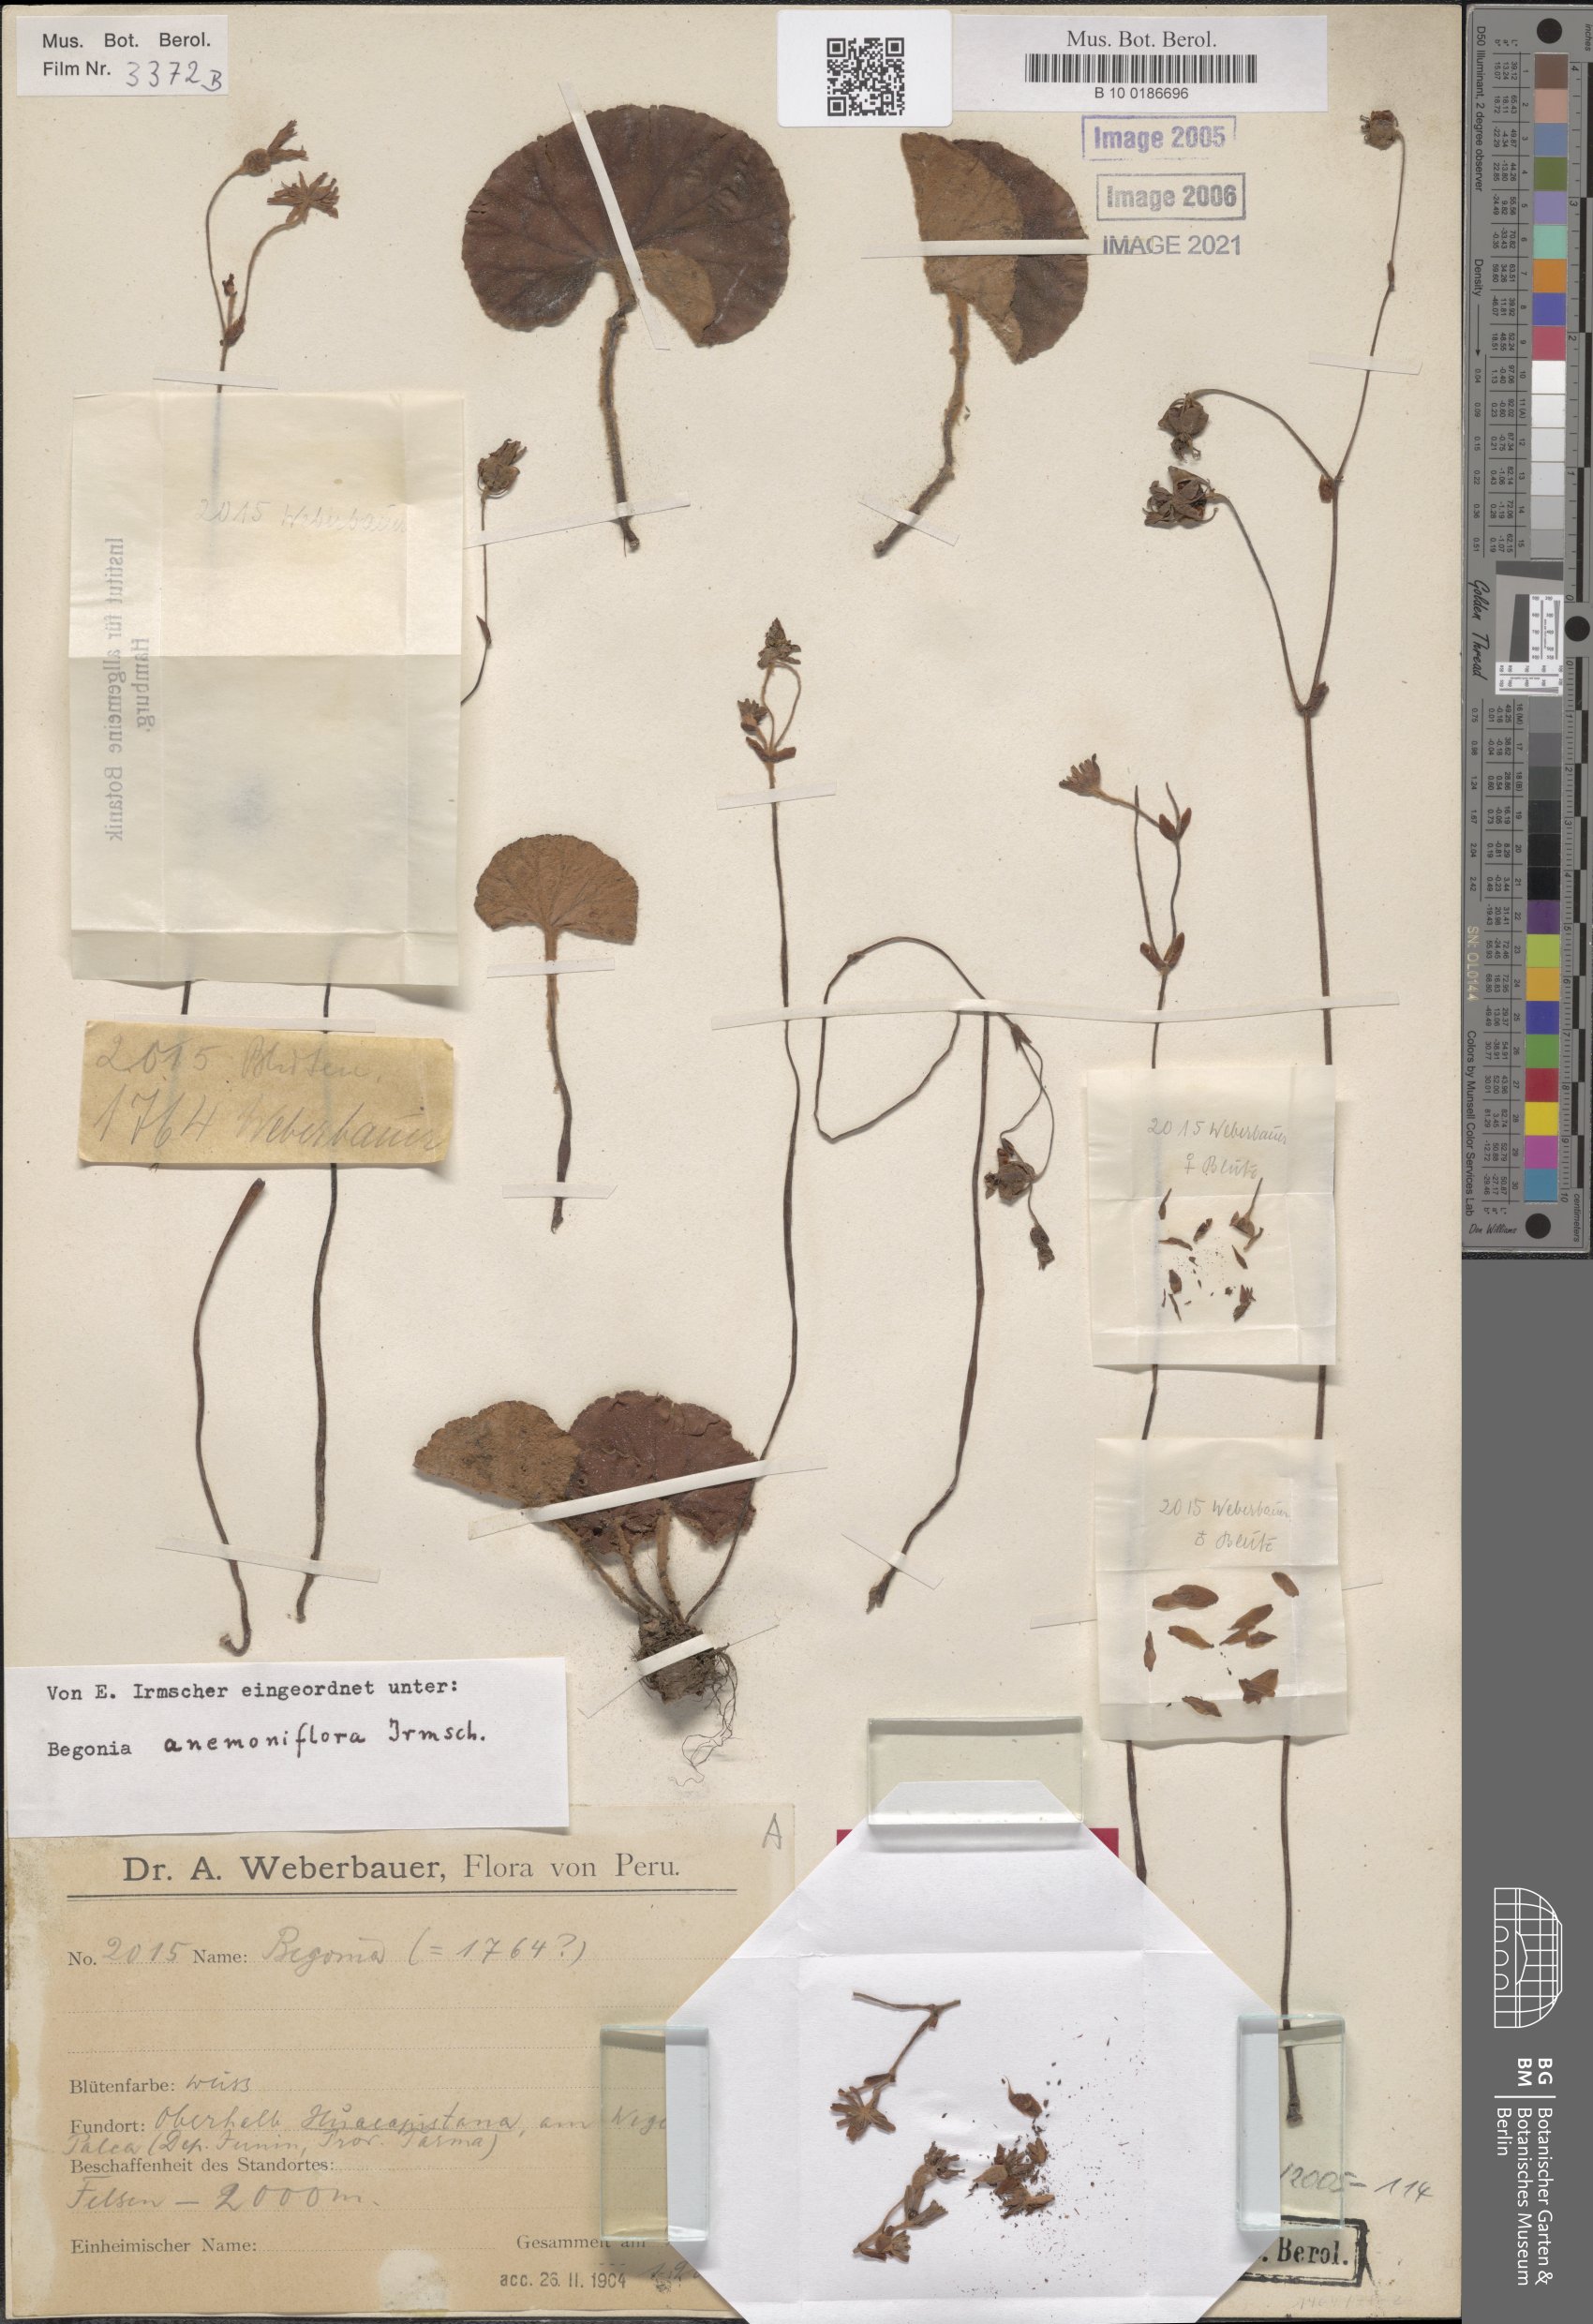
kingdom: Plantae
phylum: Tracheophyta
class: Magnoliopsida
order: Cucurbitales
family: Begoniaceae
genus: Begonia
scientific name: Begonia anemoniflora
